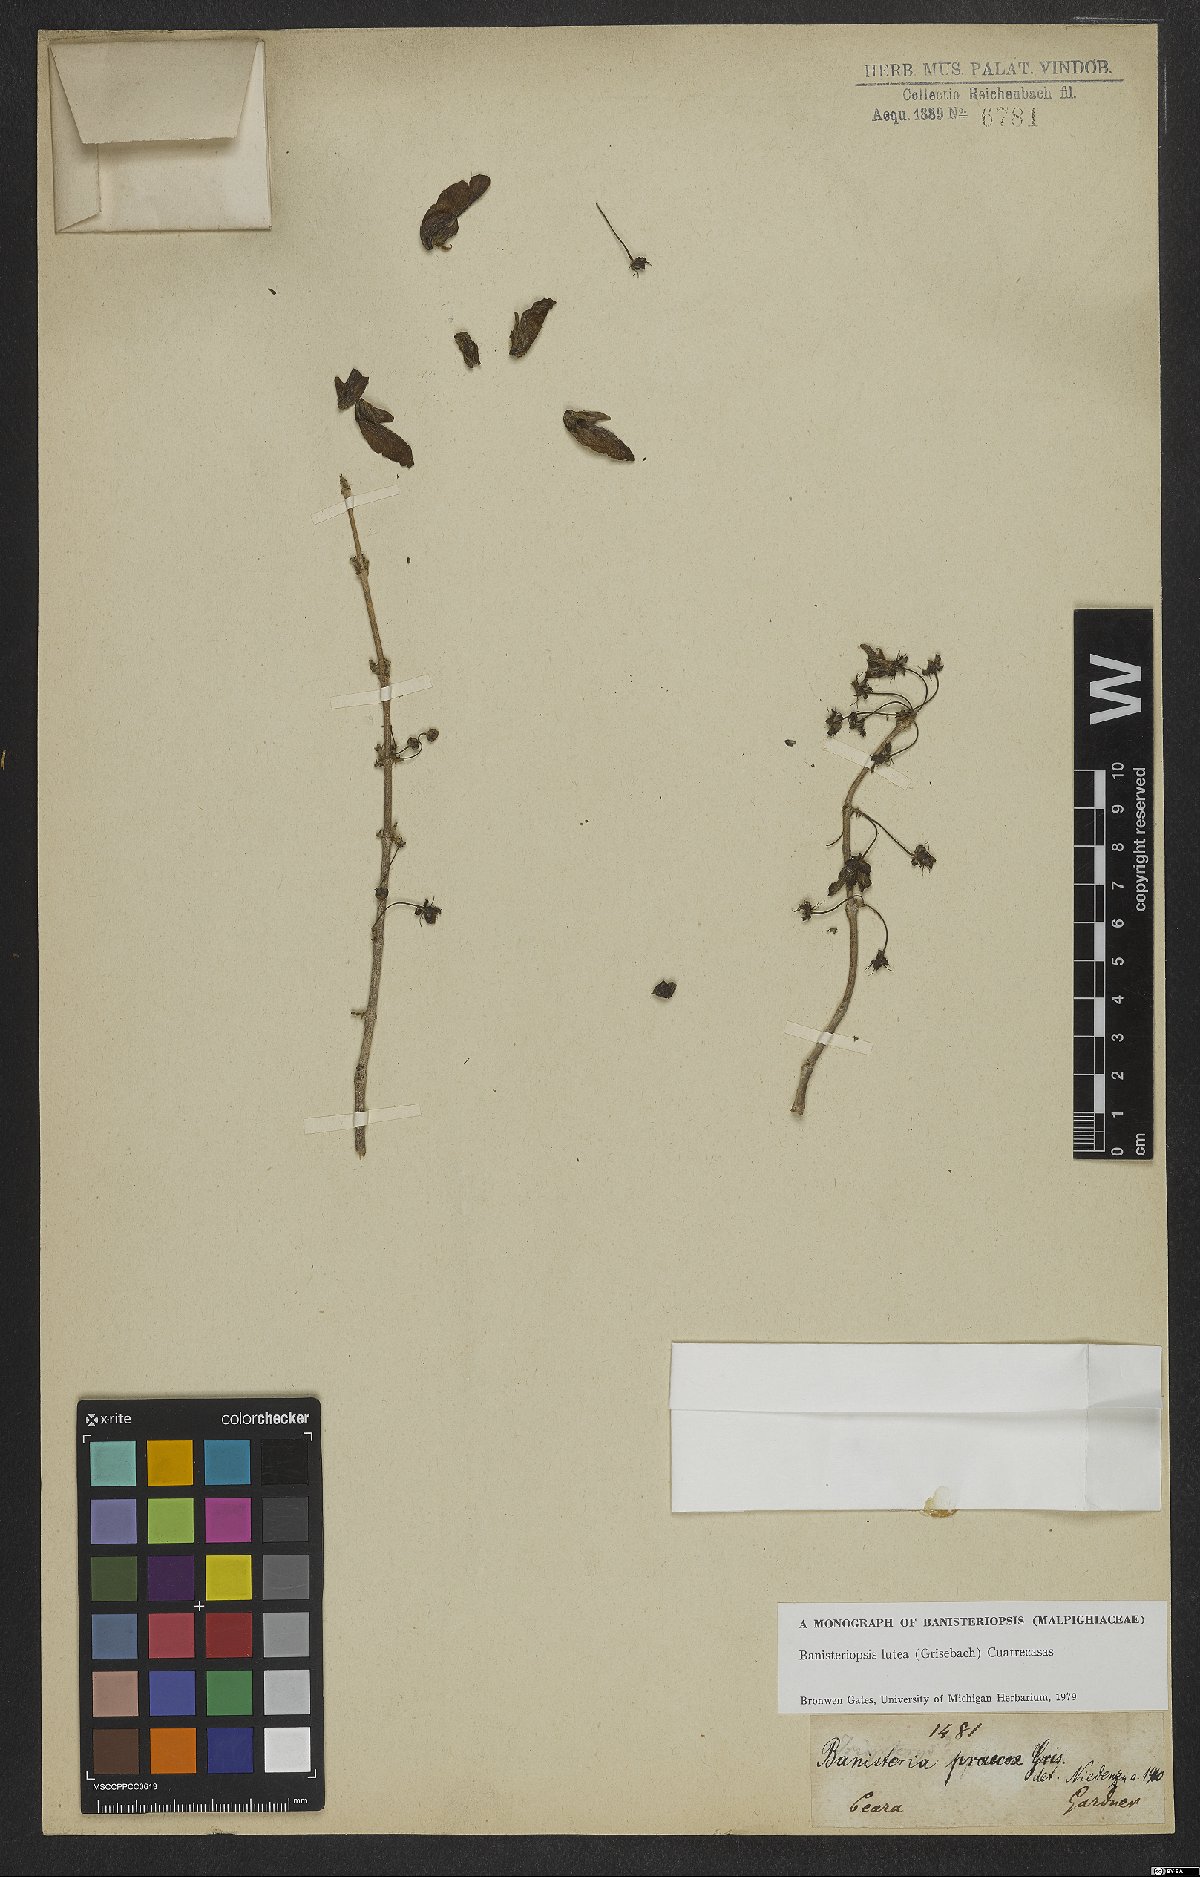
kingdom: Plantae
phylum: Tracheophyta
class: Magnoliopsida
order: Malpighiales
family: Malpighiaceae
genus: Diplopterys
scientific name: Diplopterys lutea
